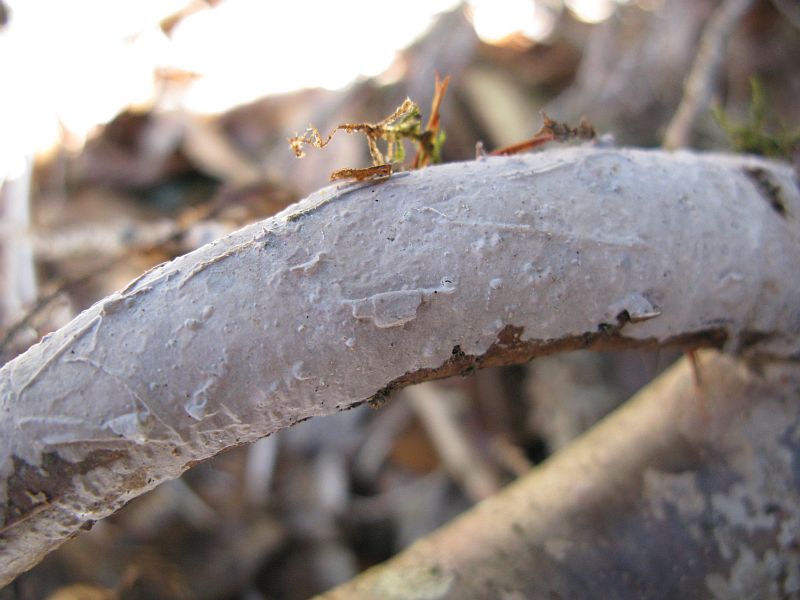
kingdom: Fungi
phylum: Basidiomycota
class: Agaricomycetes
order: Russulales
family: Echinodontiaceae
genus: Amylostereum
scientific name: Amylostereum laevigatum
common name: ene-lædersvamp
